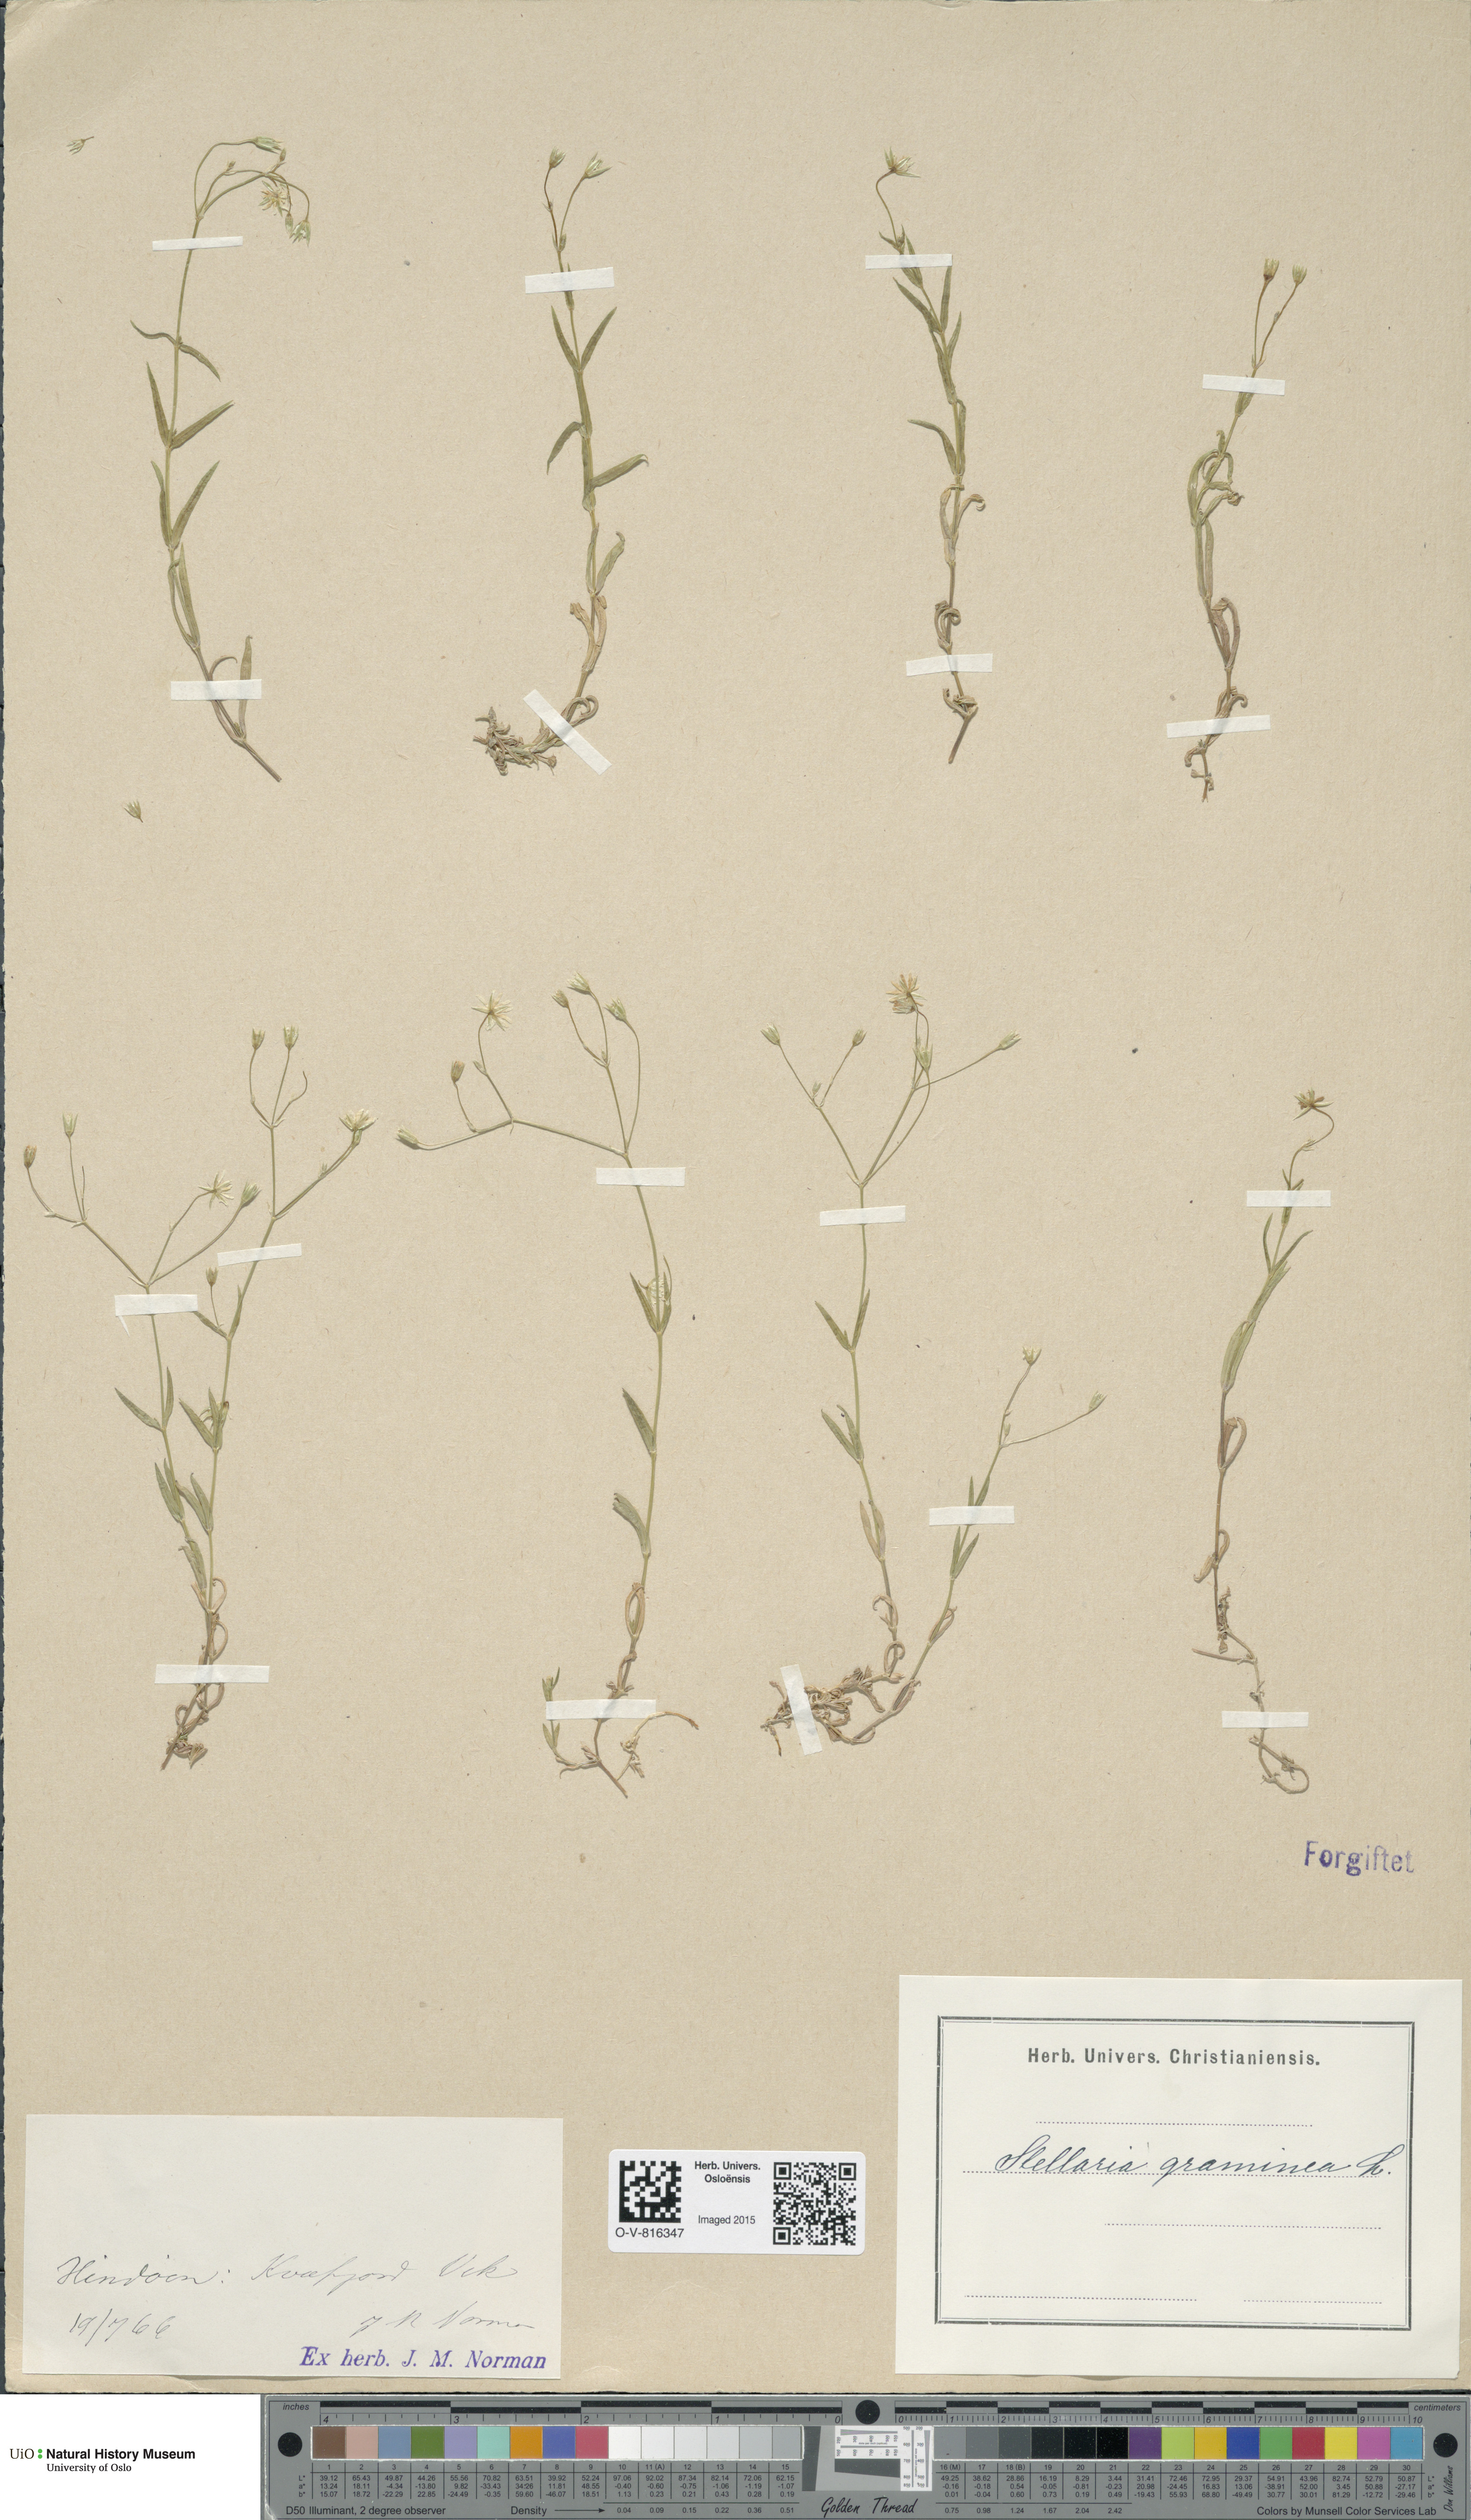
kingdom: Plantae
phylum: Tracheophyta
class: Magnoliopsida
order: Caryophyllales
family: Caryophyllaceae
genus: Stellaria
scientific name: Stellaria graminea
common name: Grass-like starwort
